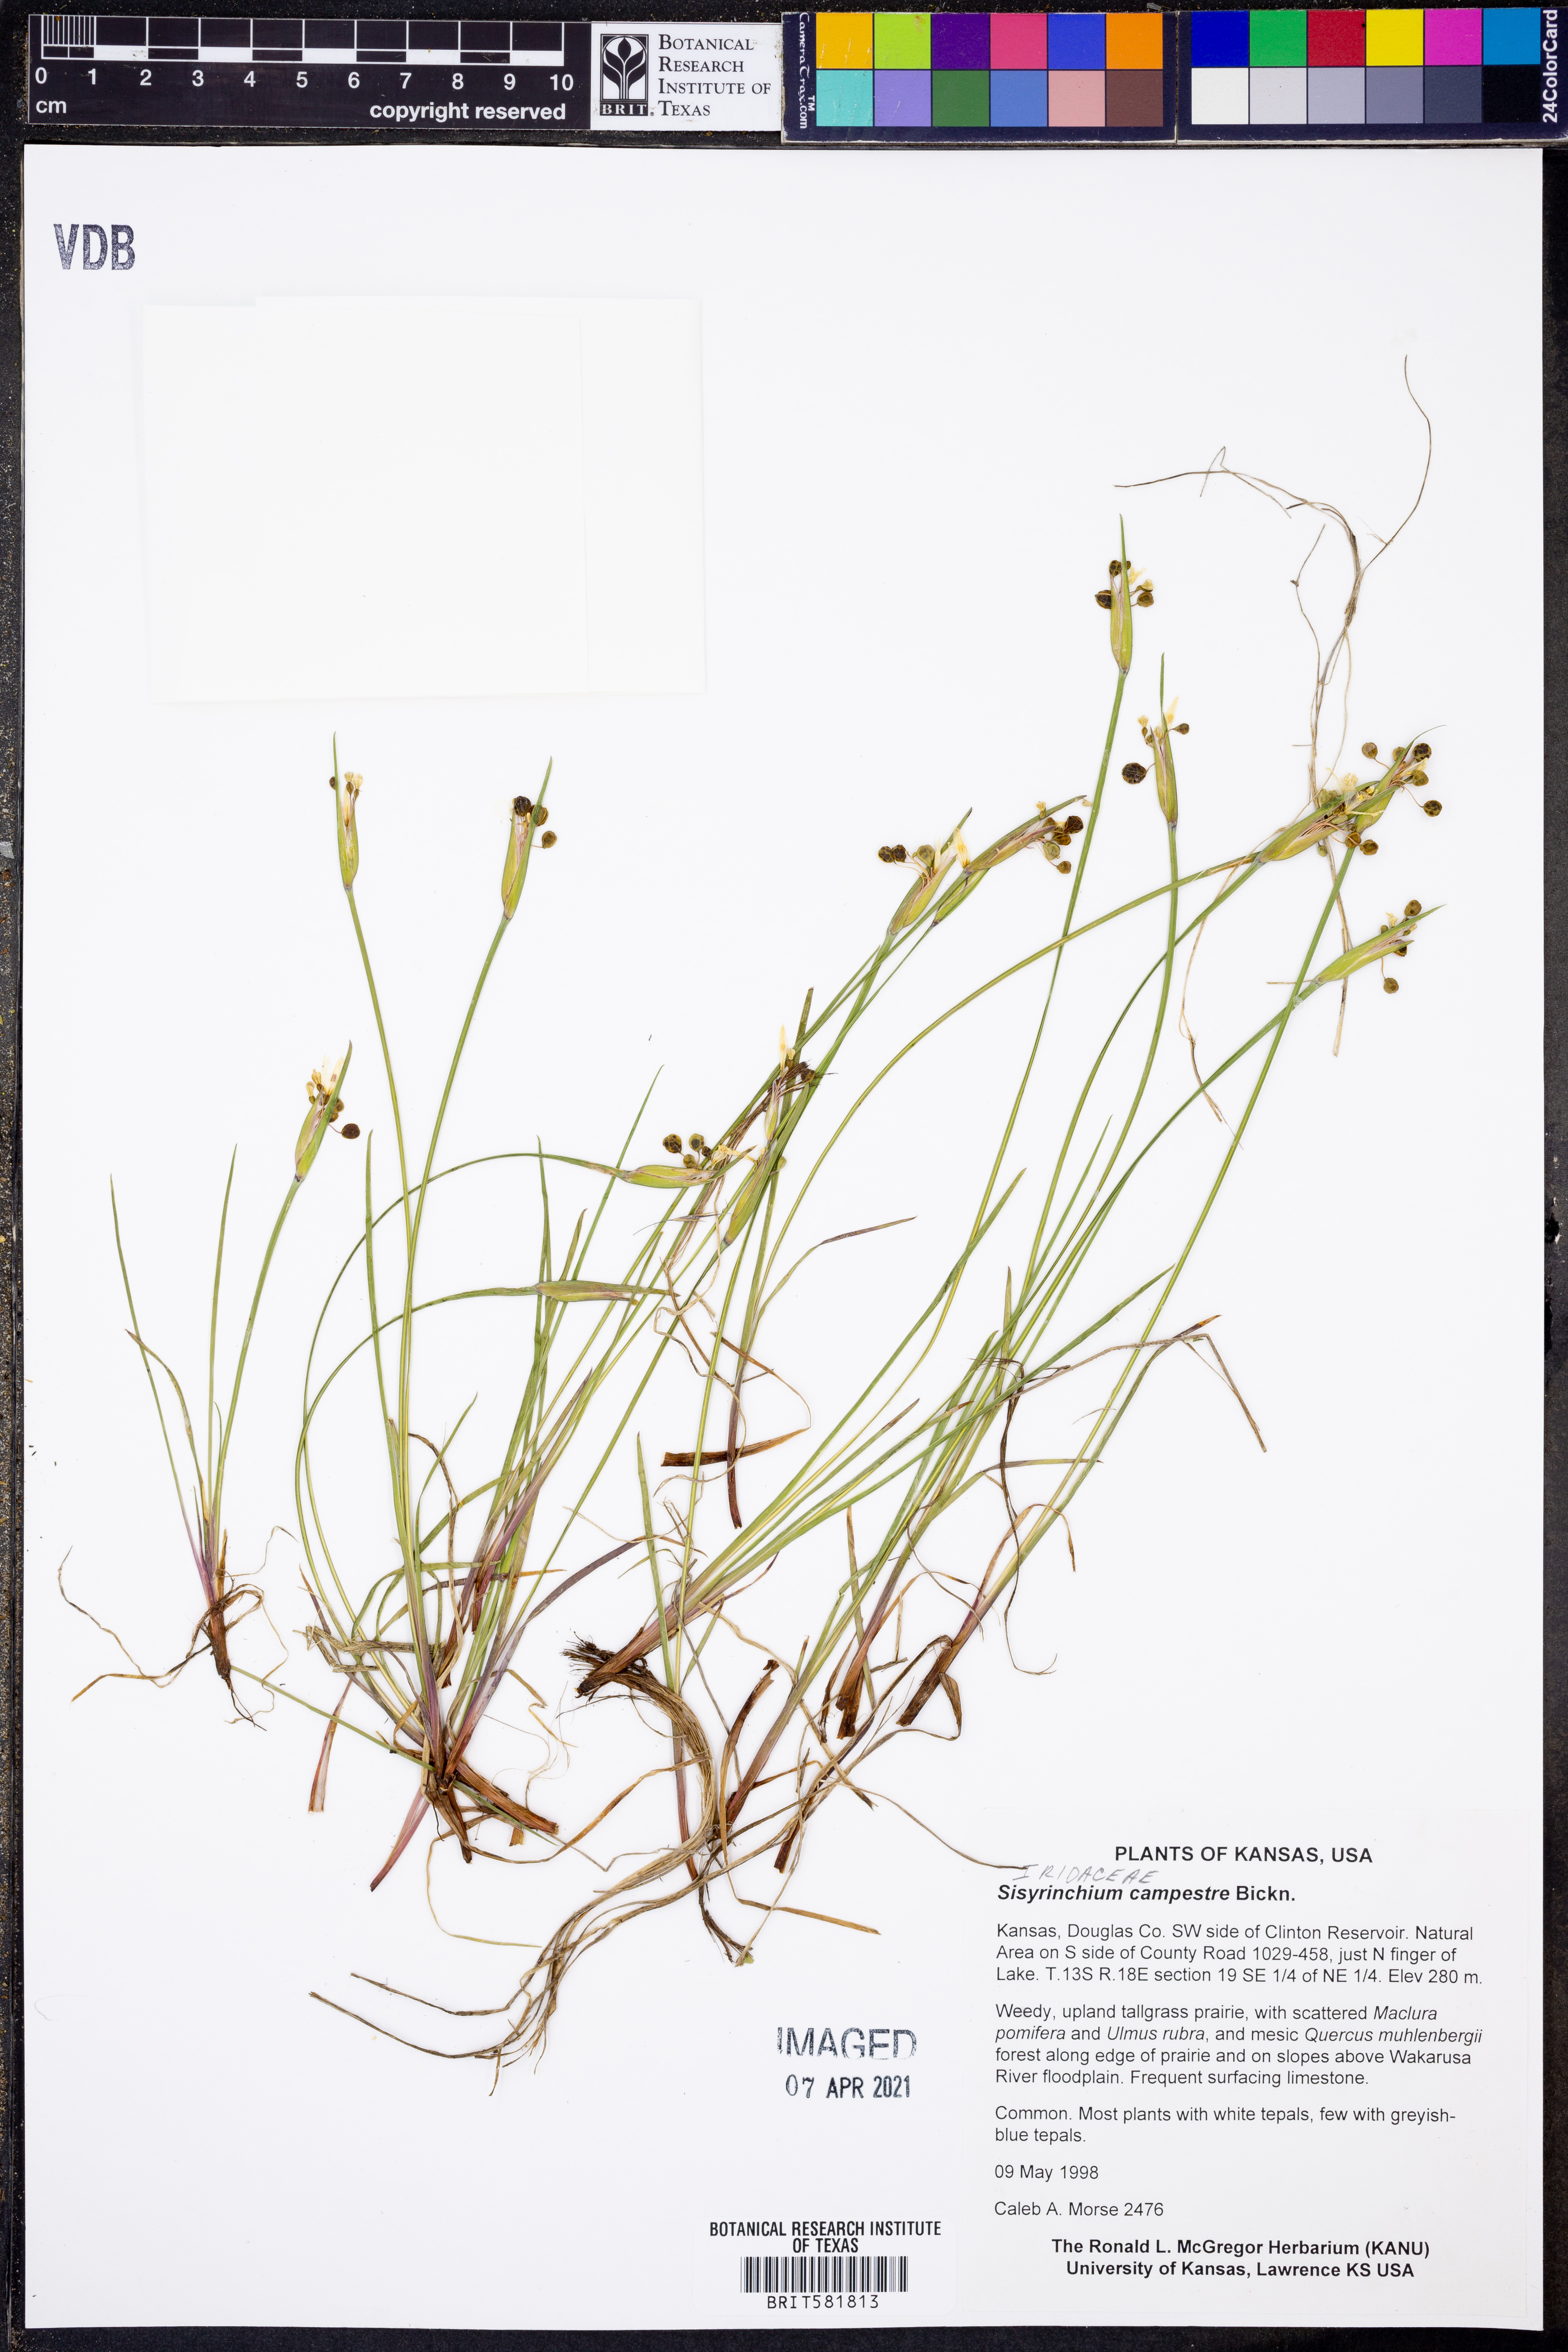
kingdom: Plantae
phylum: Tracheophyta
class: Liliopsida
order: Asparagales
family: Iridaceae
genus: Sisyrinchium
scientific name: Sisyrinchium campestre
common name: Prairie blue-eyed-grass
